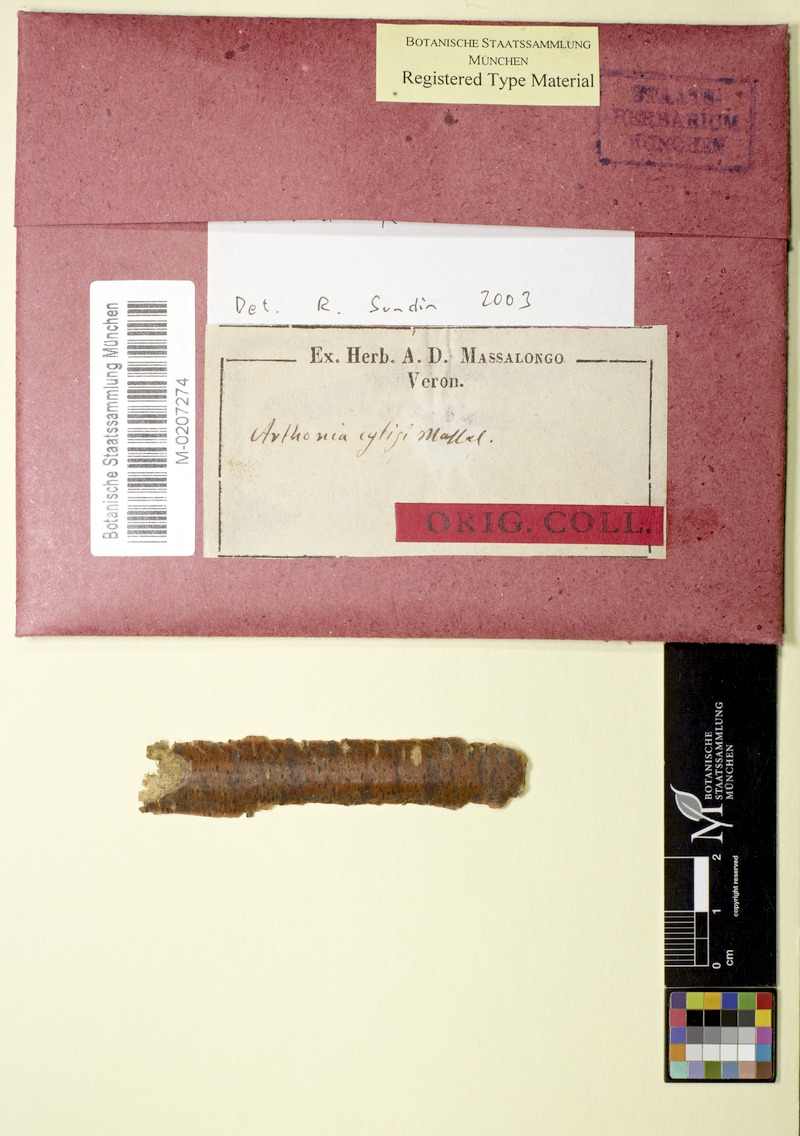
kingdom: Fungi
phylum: Ascomycota
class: Arthoniomycetes
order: Arthoniales
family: Arthoniaceae
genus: Naevia
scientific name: Naevia dispersa
